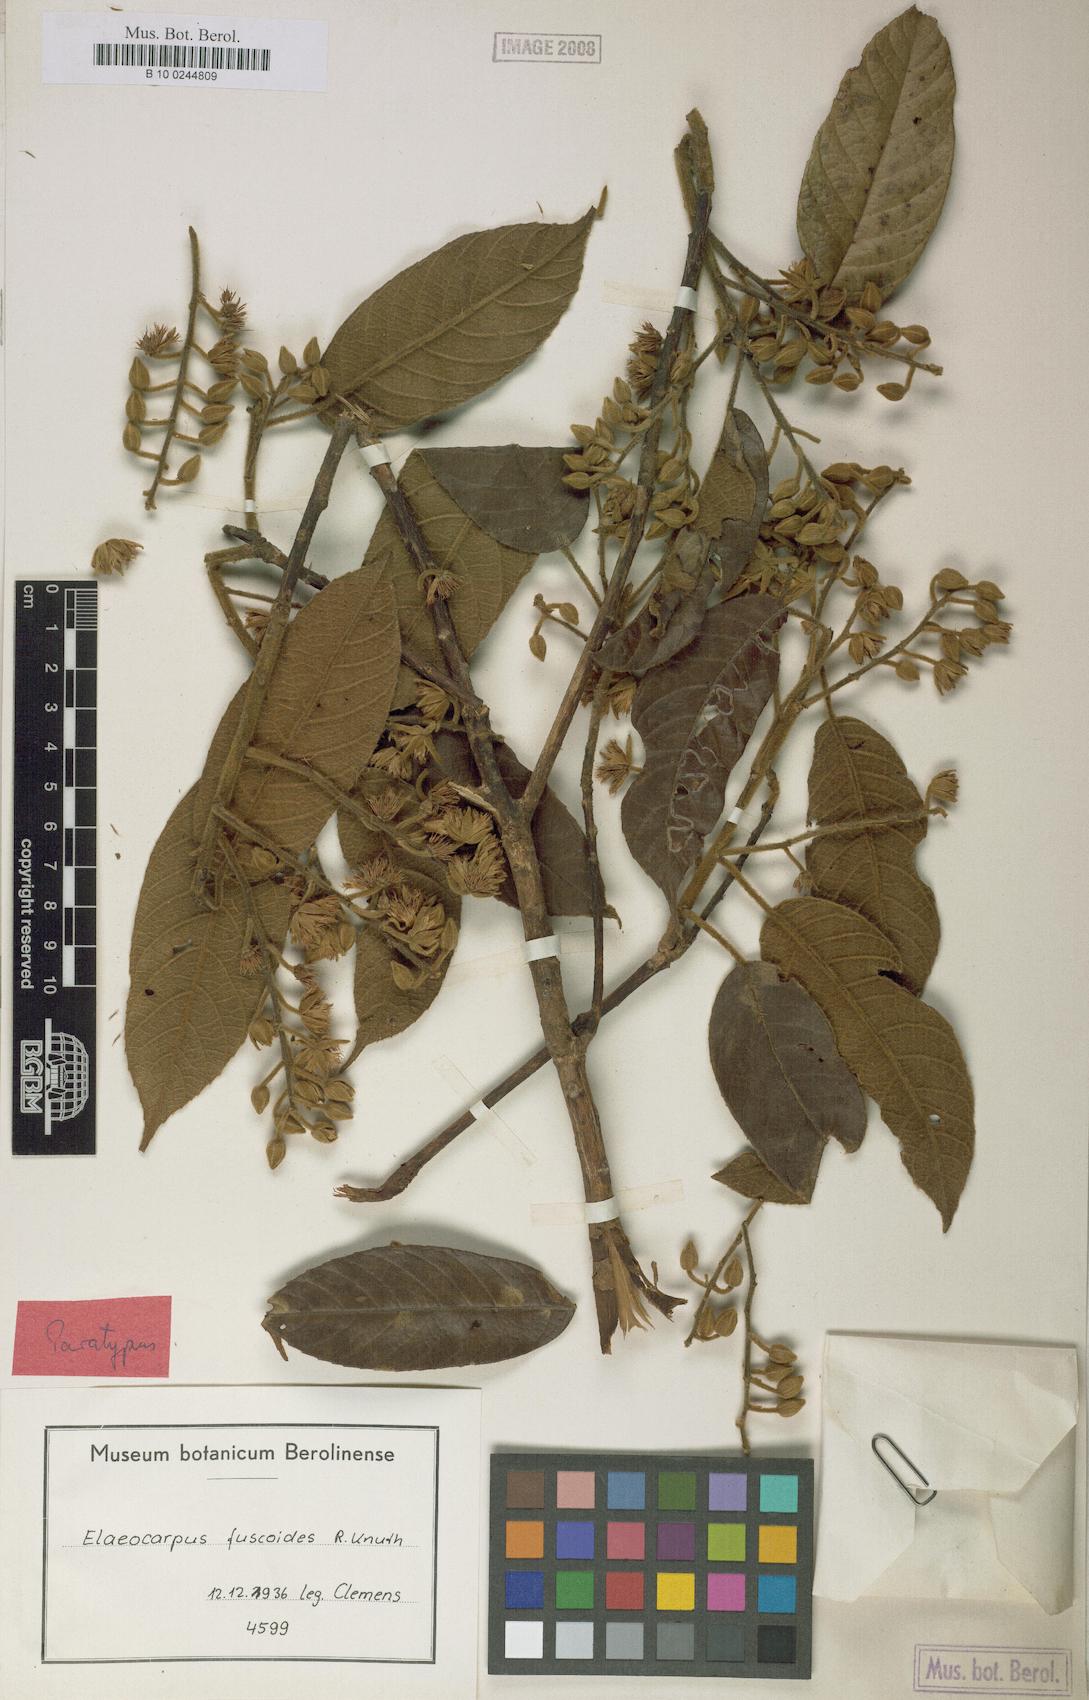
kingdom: Plantae
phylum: Tracheophyta
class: Magnoliopsida
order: Oxalidales
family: Elaeocarpaceae
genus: Elaeocarpus
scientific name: Elaeocarpus fuscoides
